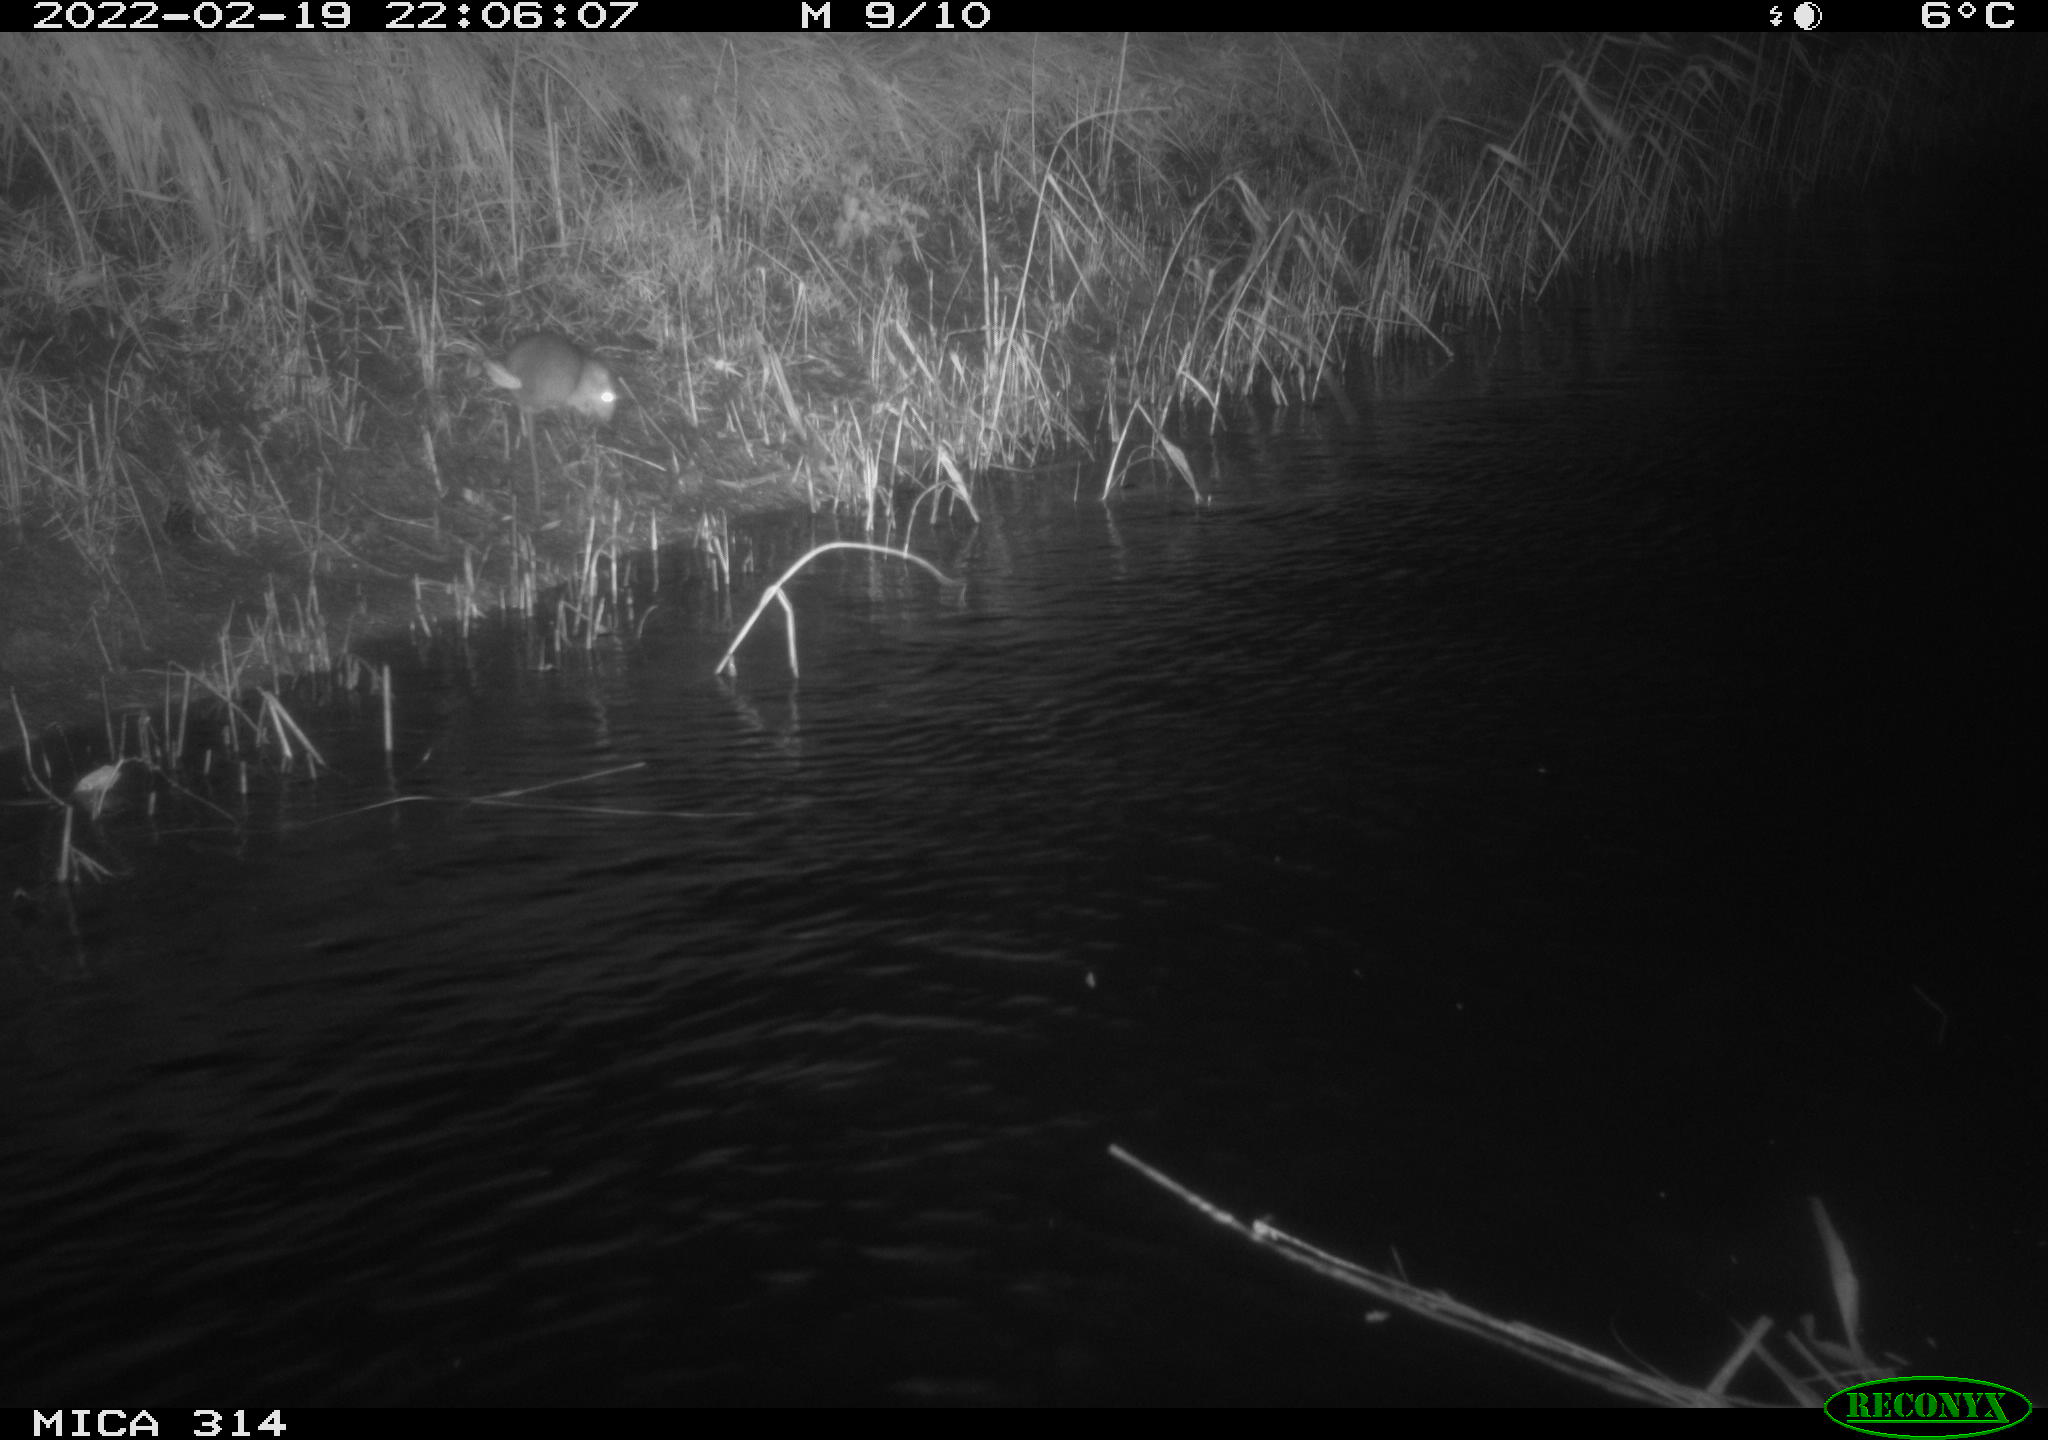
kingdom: Animalia
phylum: Chordata
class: Mammalia
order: Rodentia
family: Muridae
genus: Rattus
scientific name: Rattus norvegicus
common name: Brown rat
